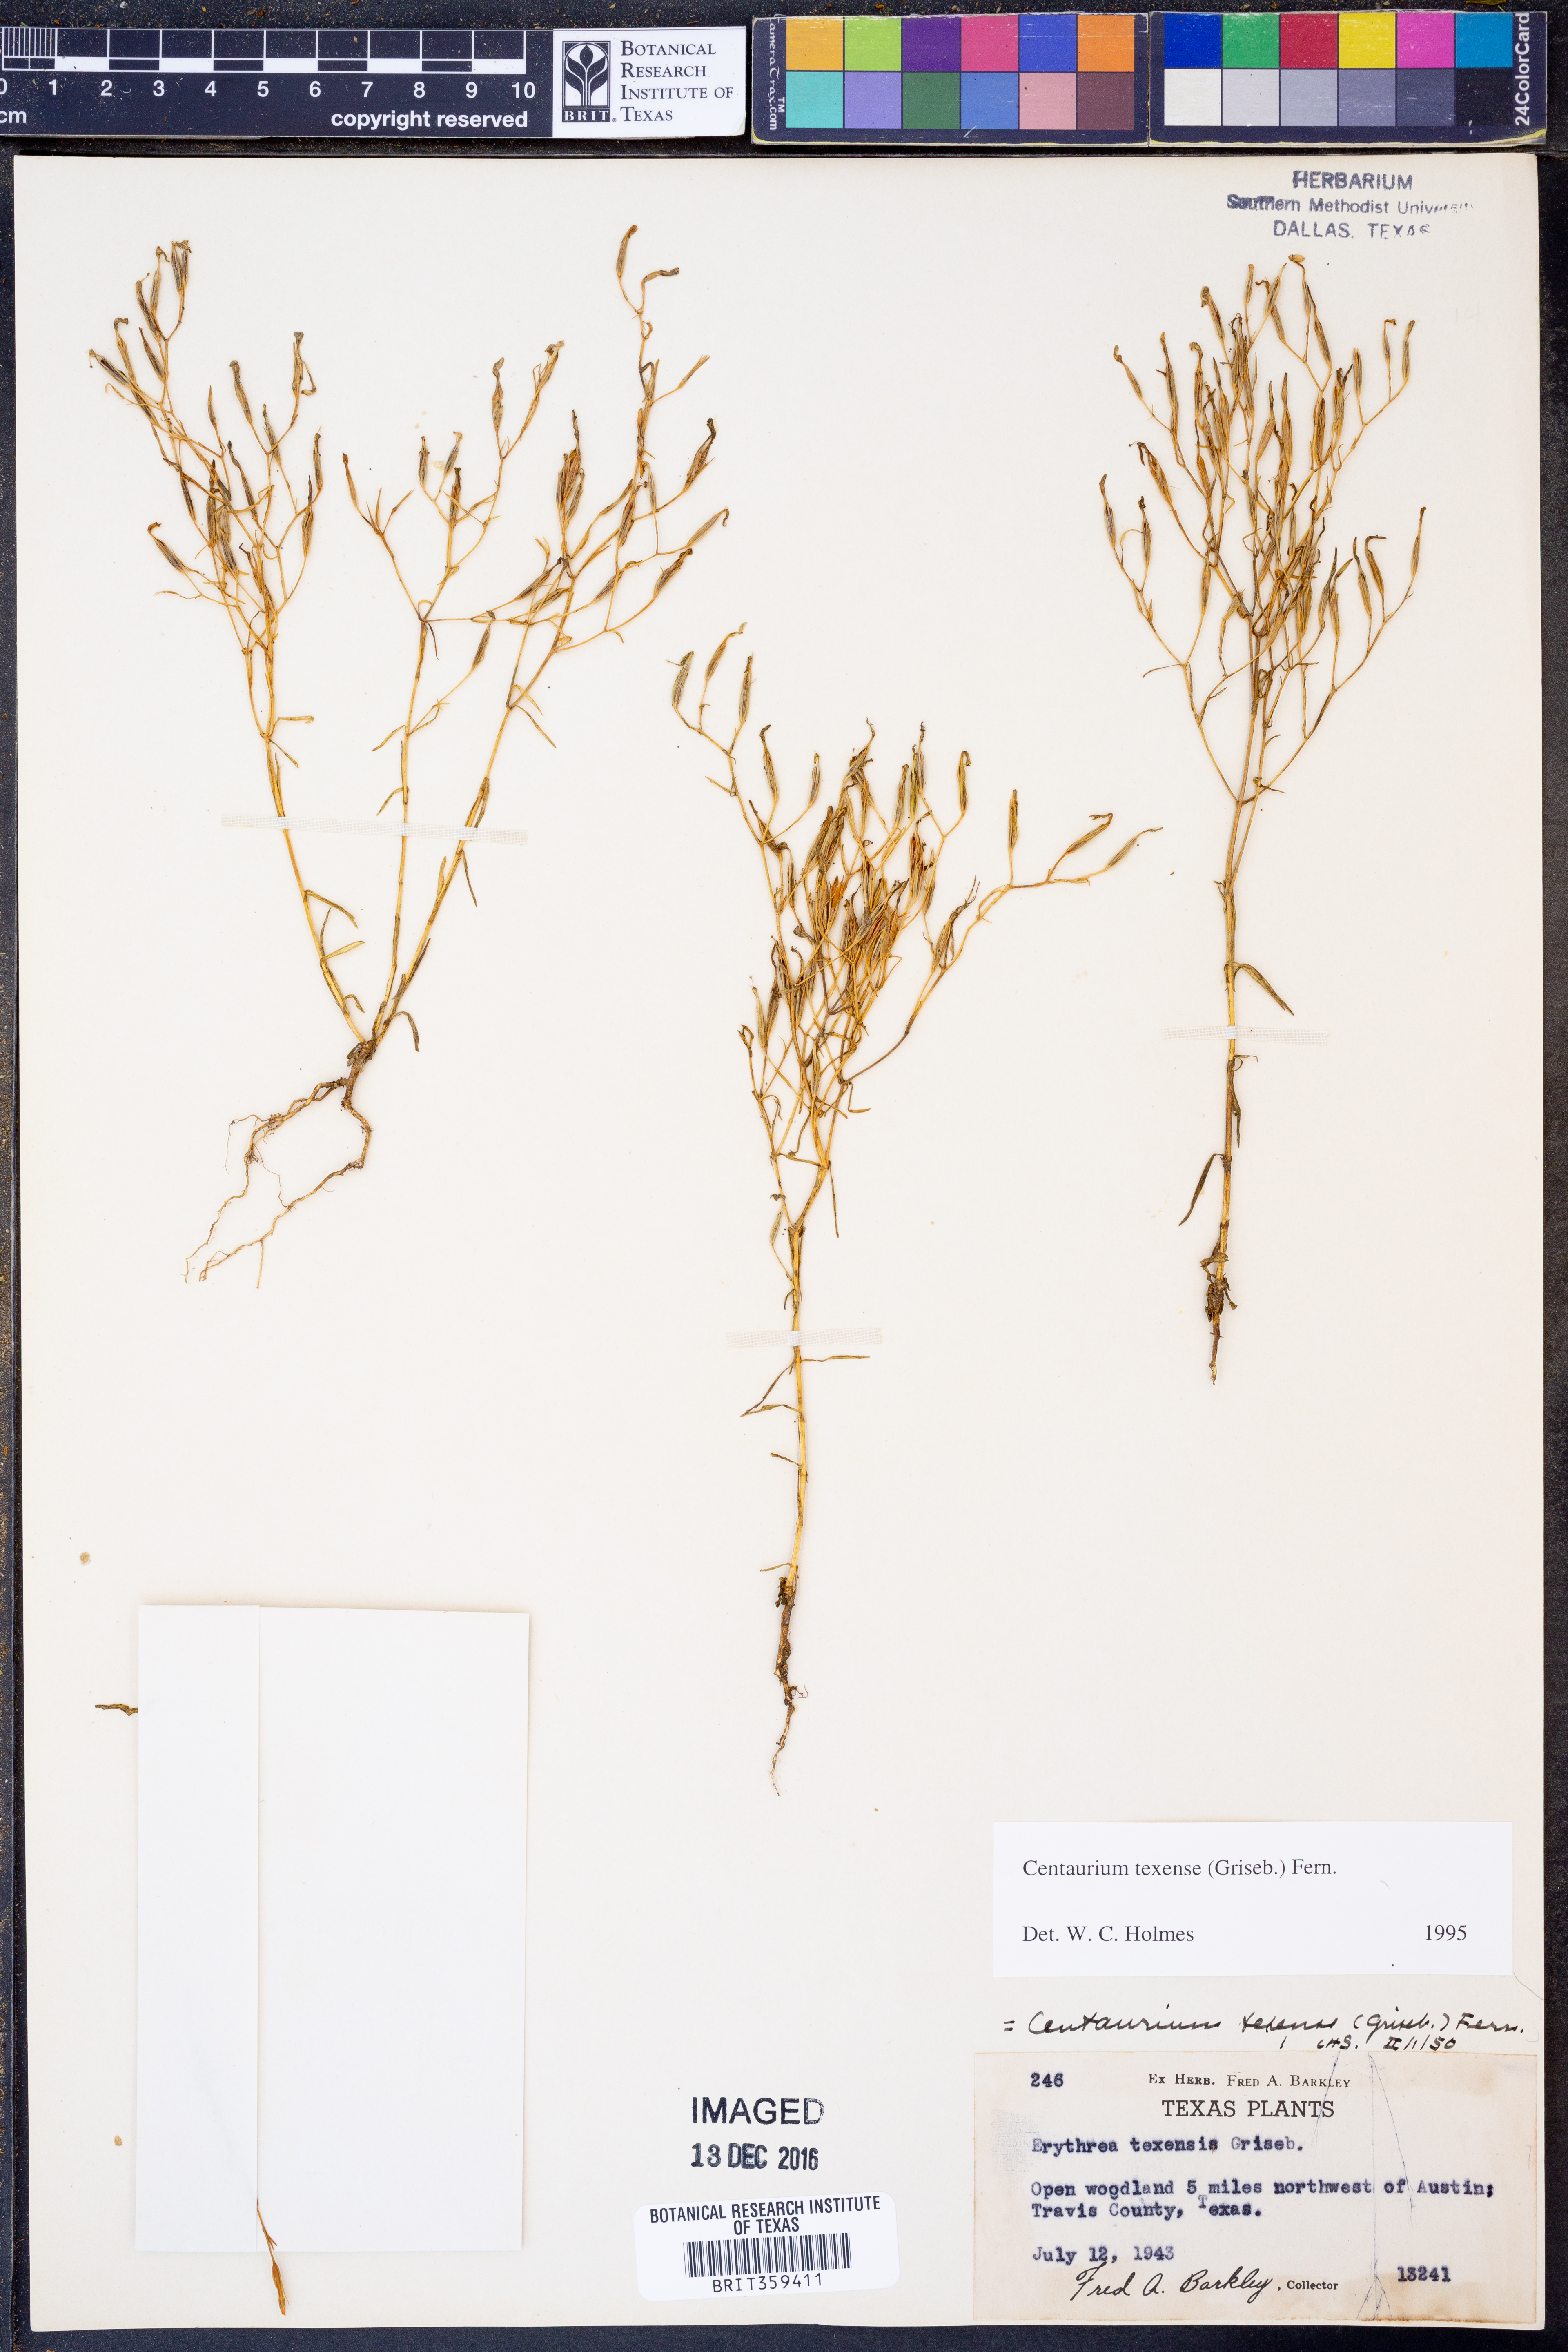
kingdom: Plantae
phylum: Tracheophyta
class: Magnoliopsida
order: Gentianales
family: Gentianaceae
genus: Zeltnera
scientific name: Zeltnera texensis
